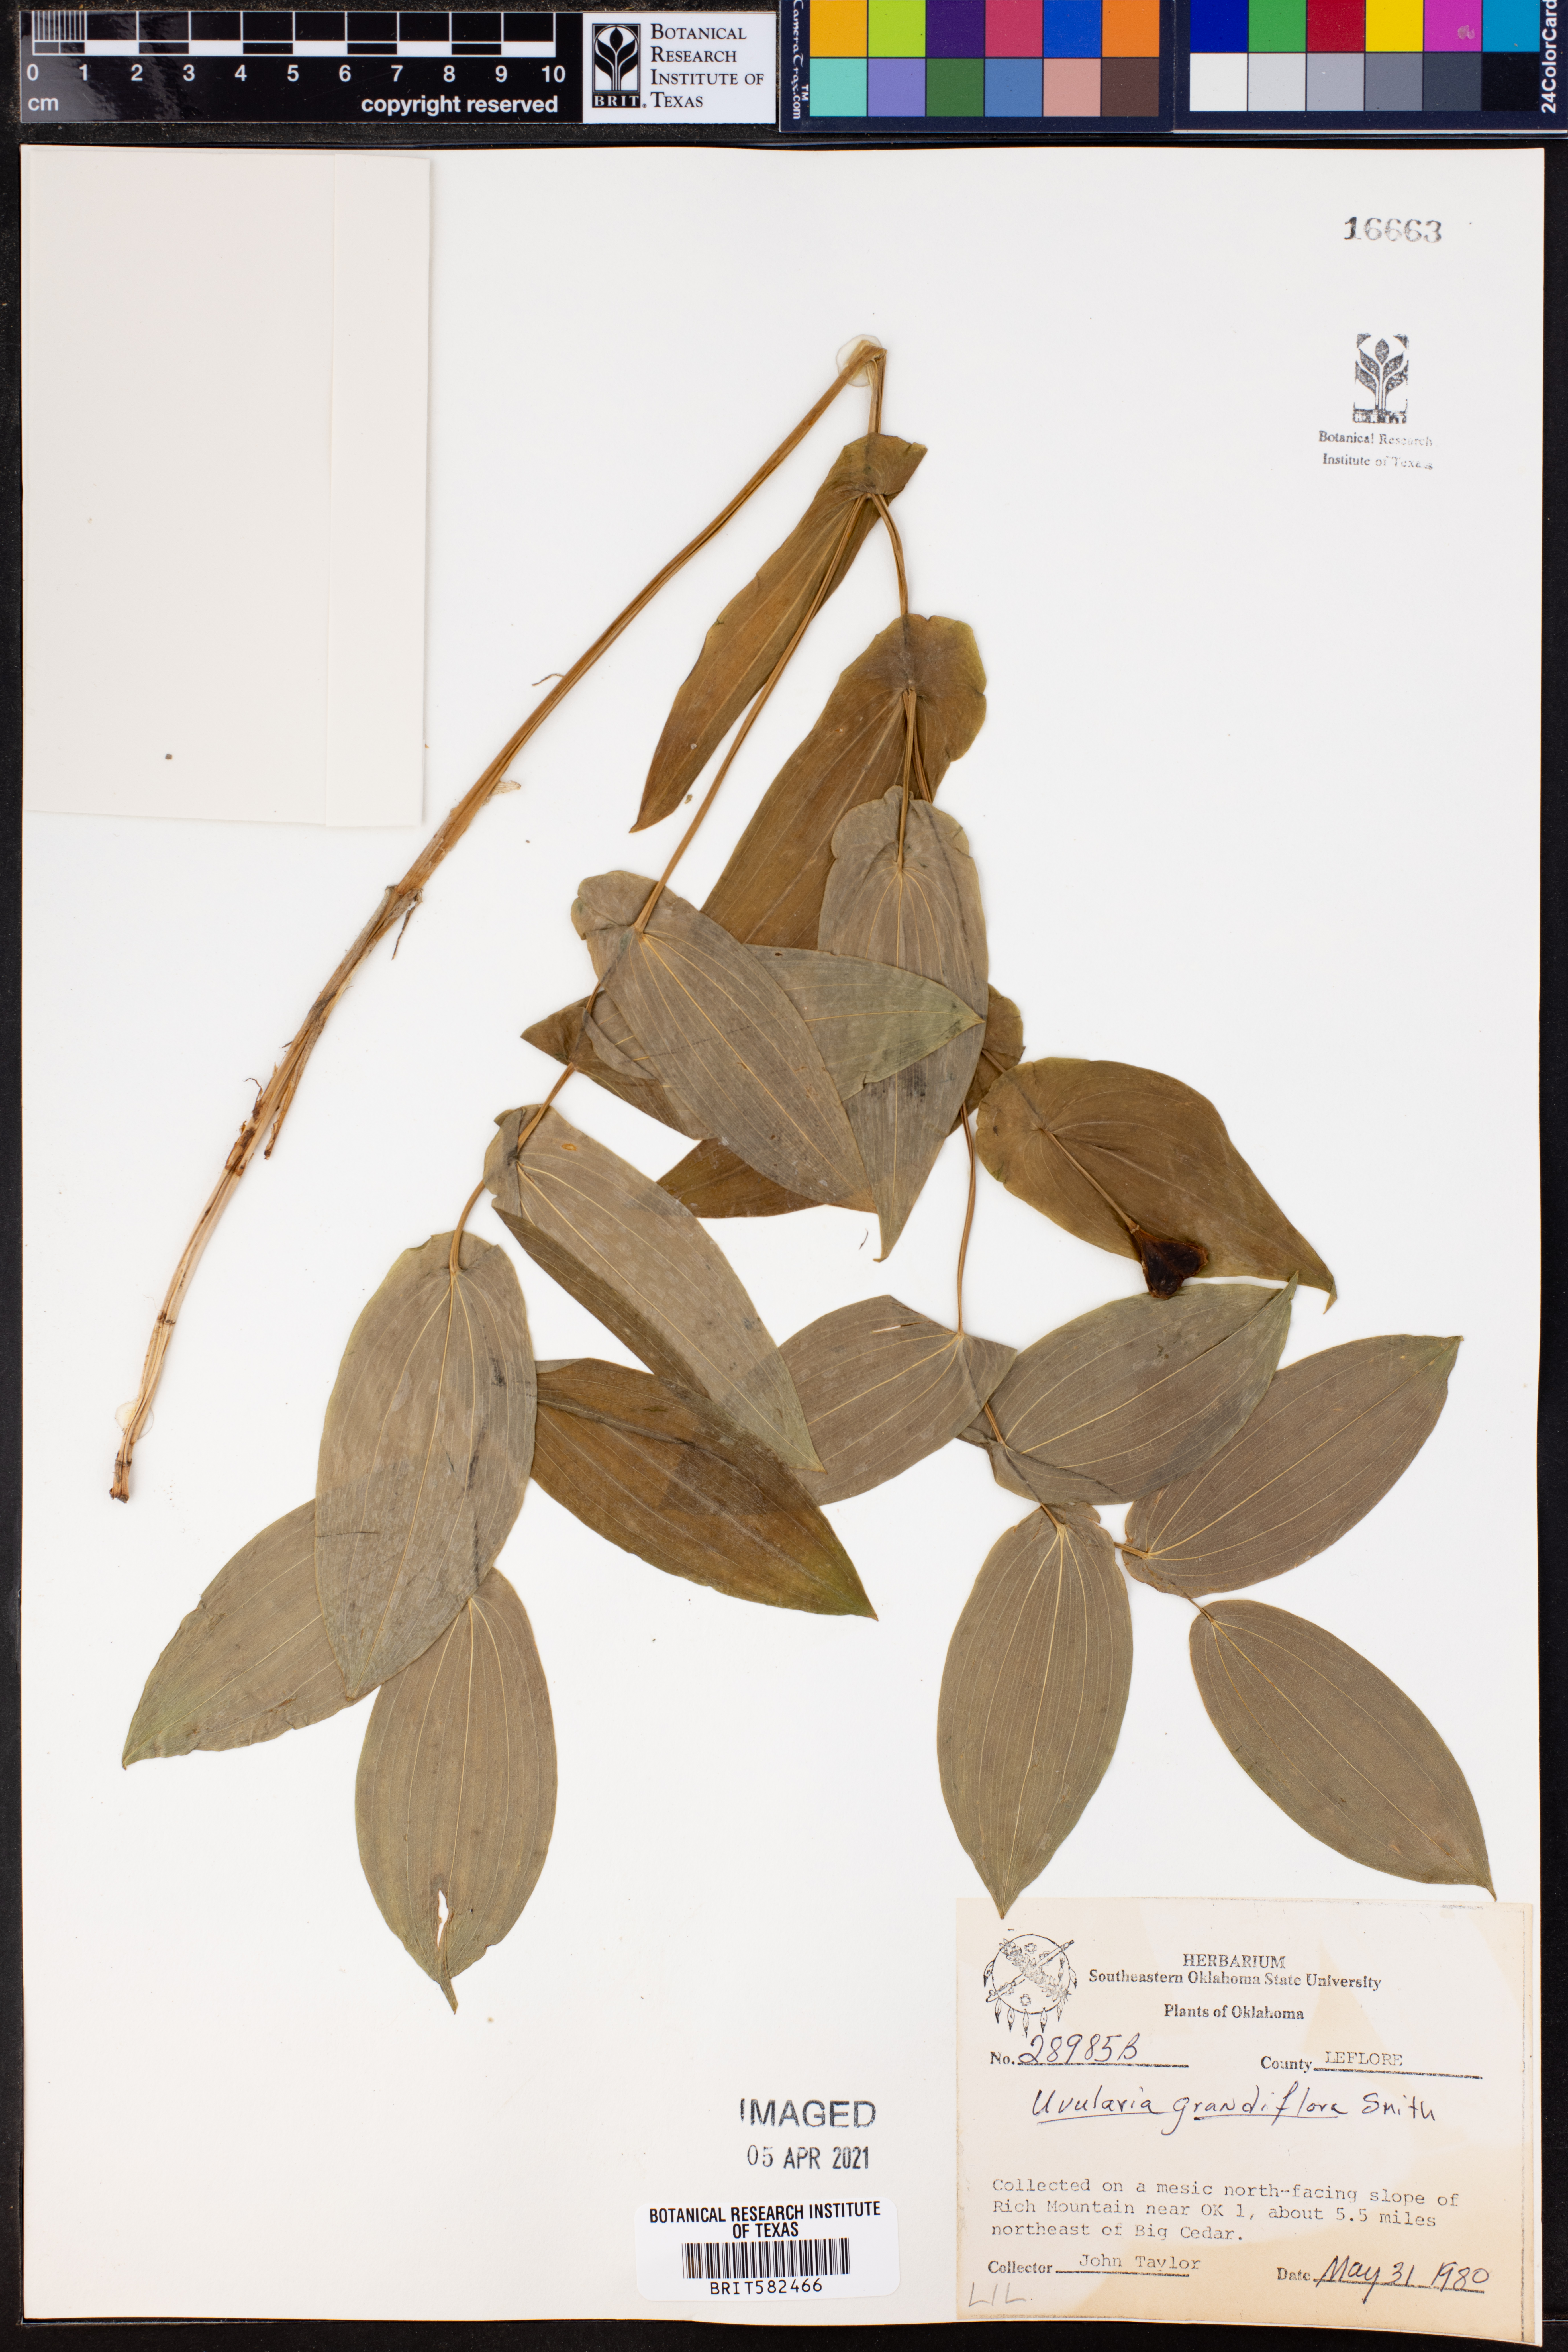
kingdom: Plantae
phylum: Tracheophyta
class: Liliopsida
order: Liliales
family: Colchicaceae
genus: Uvularia
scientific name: Uvularia grandiflora
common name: Bellwort
